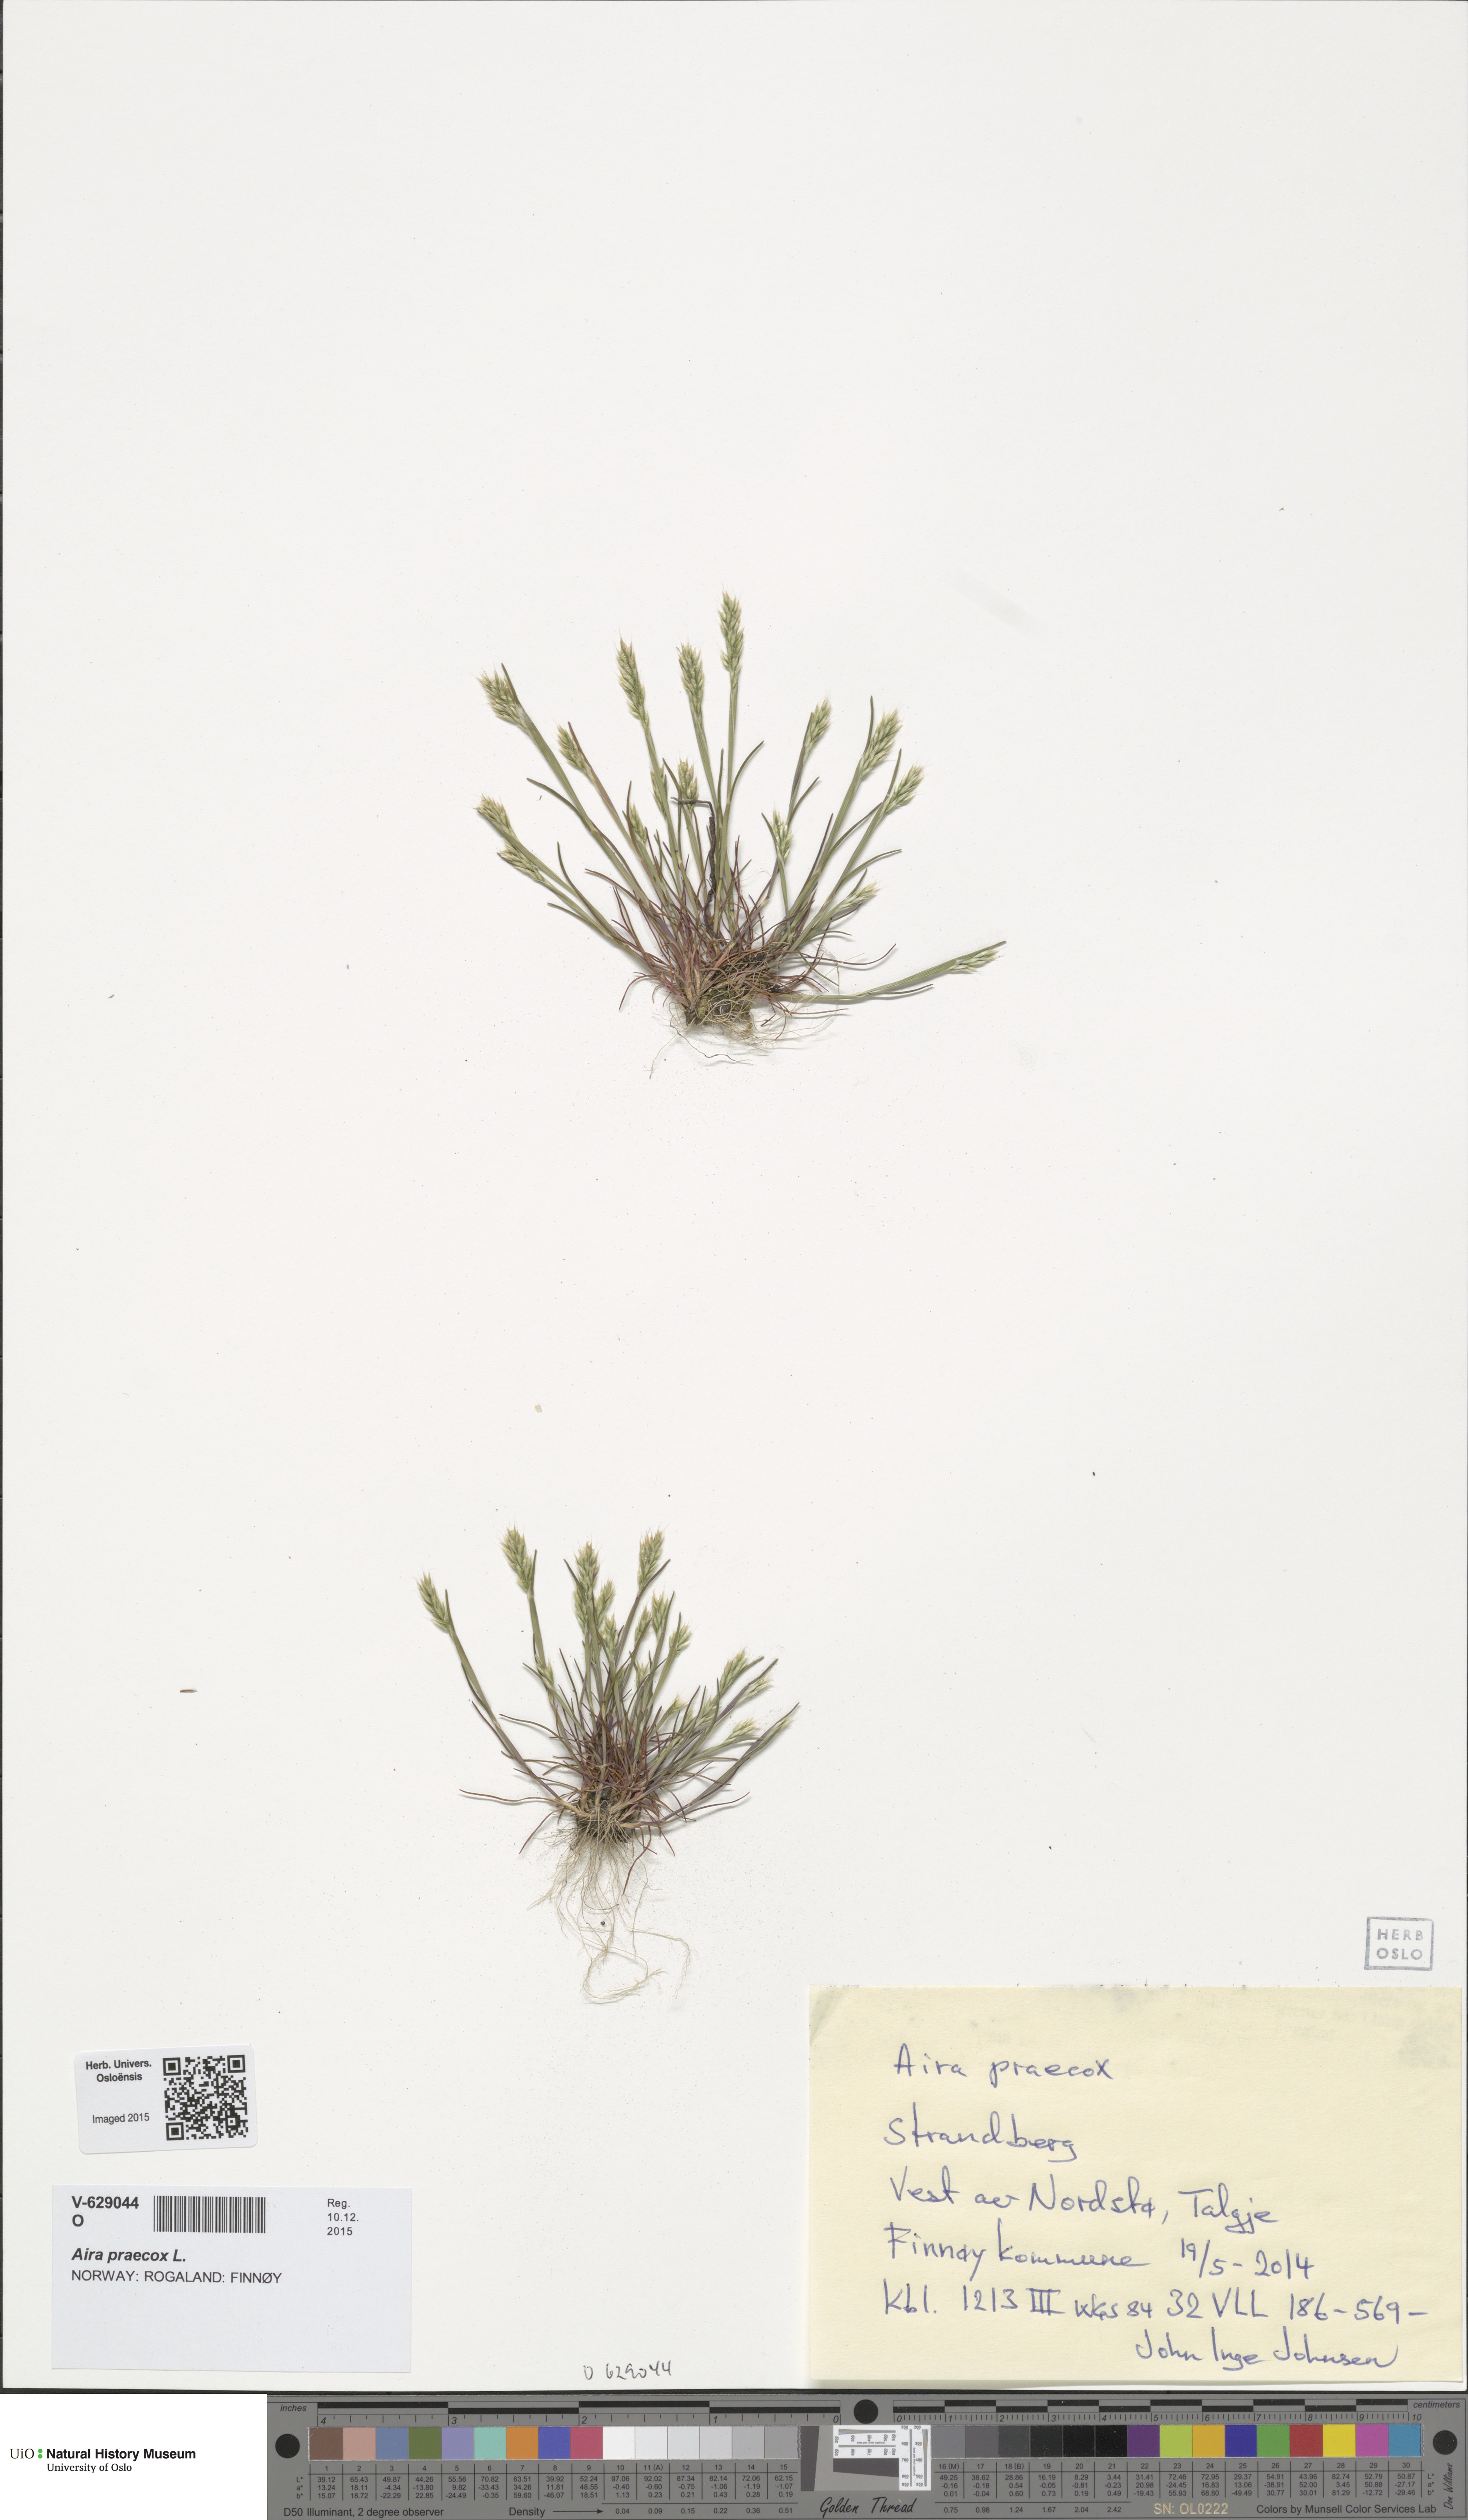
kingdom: Plantae
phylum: Tracheophyta
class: Liliopsida
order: Poales
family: Poaceae
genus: Aira
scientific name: Aira praecox
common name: Early hair-grass
